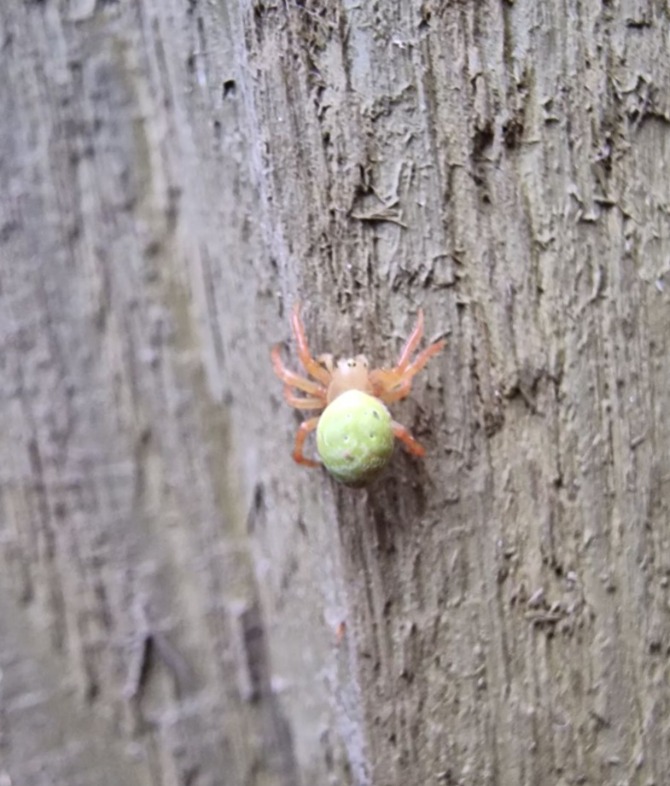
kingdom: Animalia
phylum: Arthropoda
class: Arachnida
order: Araneae
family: Araneidae
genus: Araniella
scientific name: Araniella
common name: Agurkeedderkopslægten
